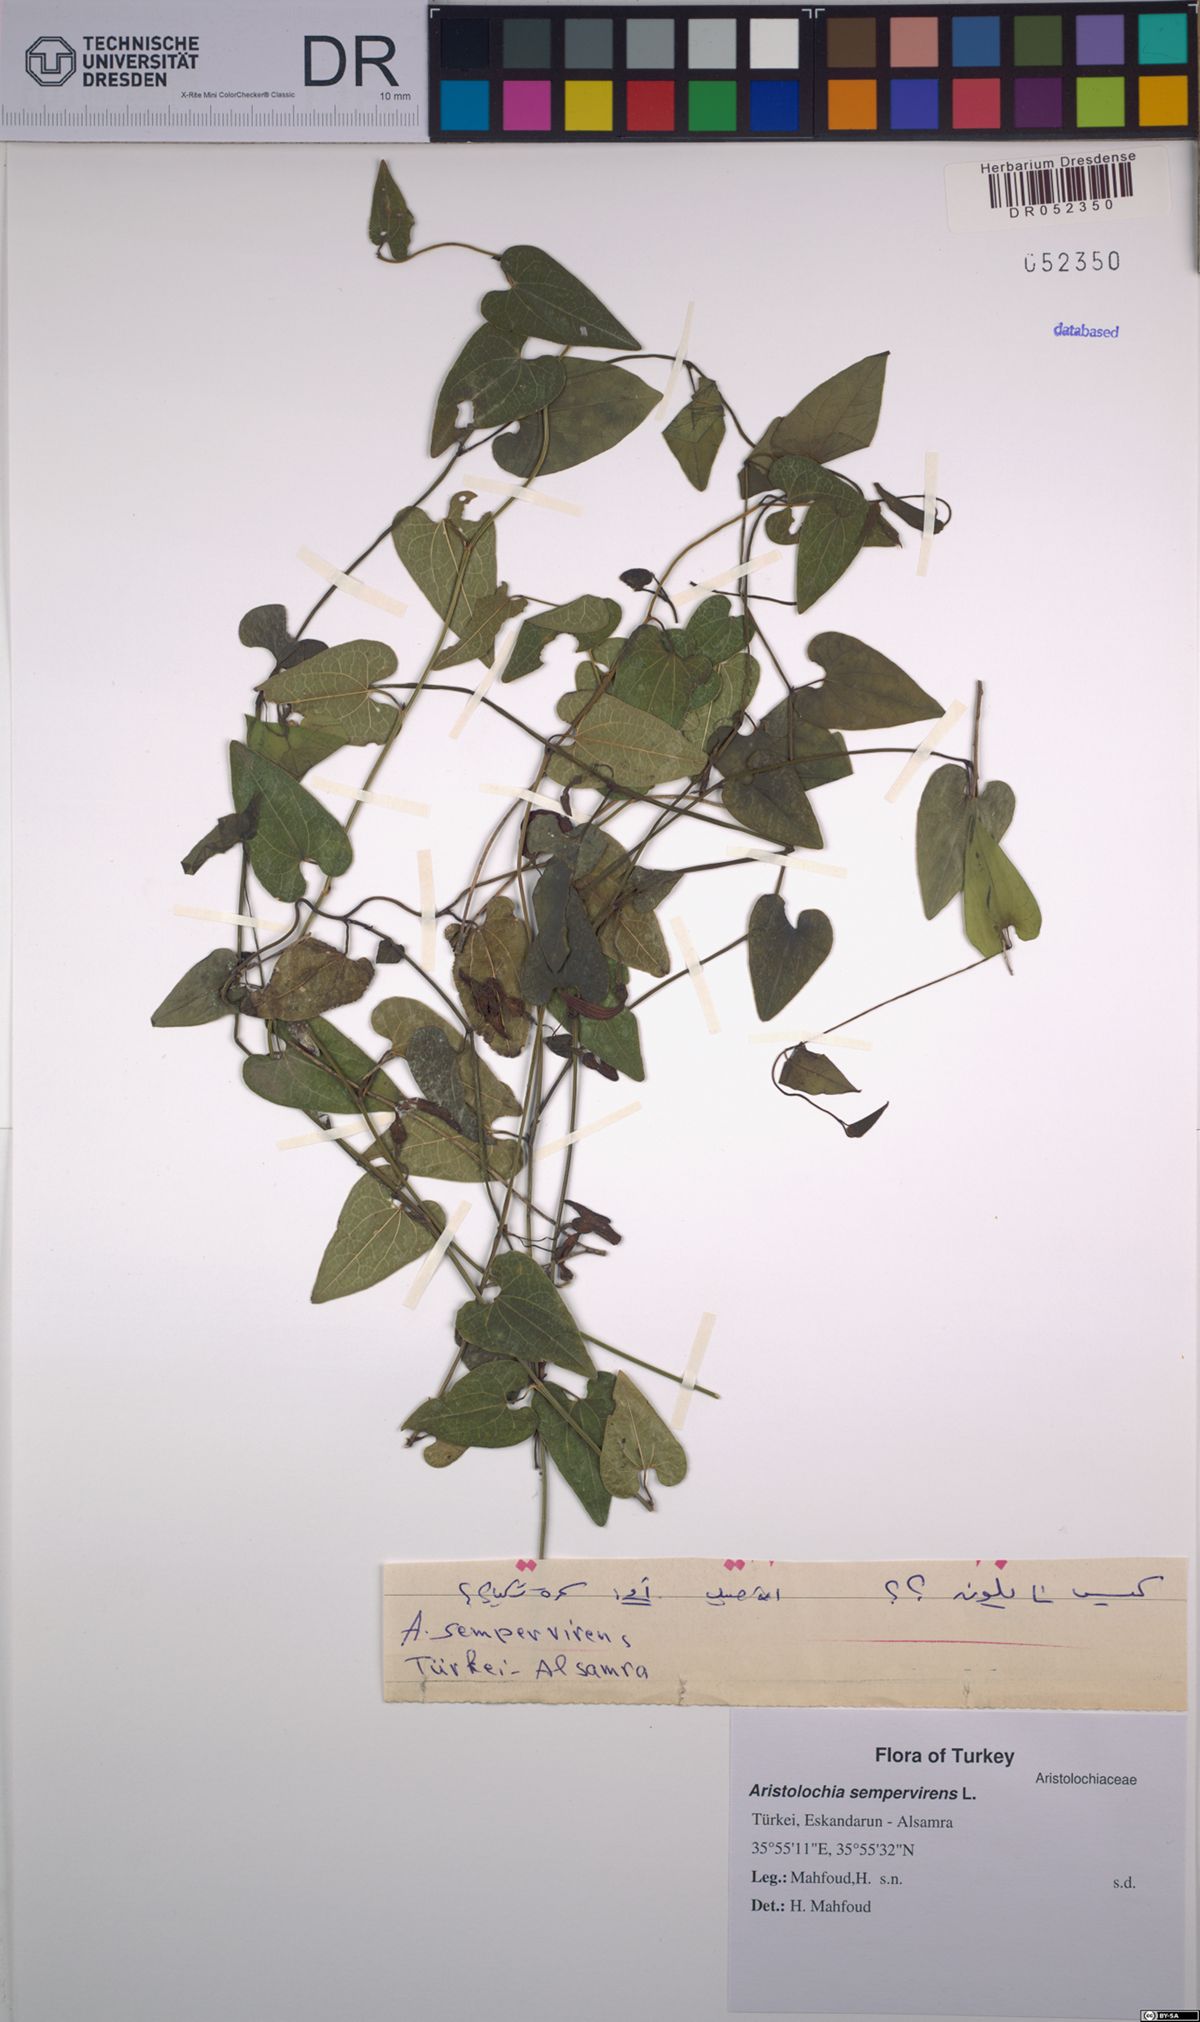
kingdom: Plantae
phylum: Tracheophyta
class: Magnoliopsida
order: Piperales
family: Aristolochiaceae
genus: Aristolochia
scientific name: Aristolochia sempervirens
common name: Long birthwort
